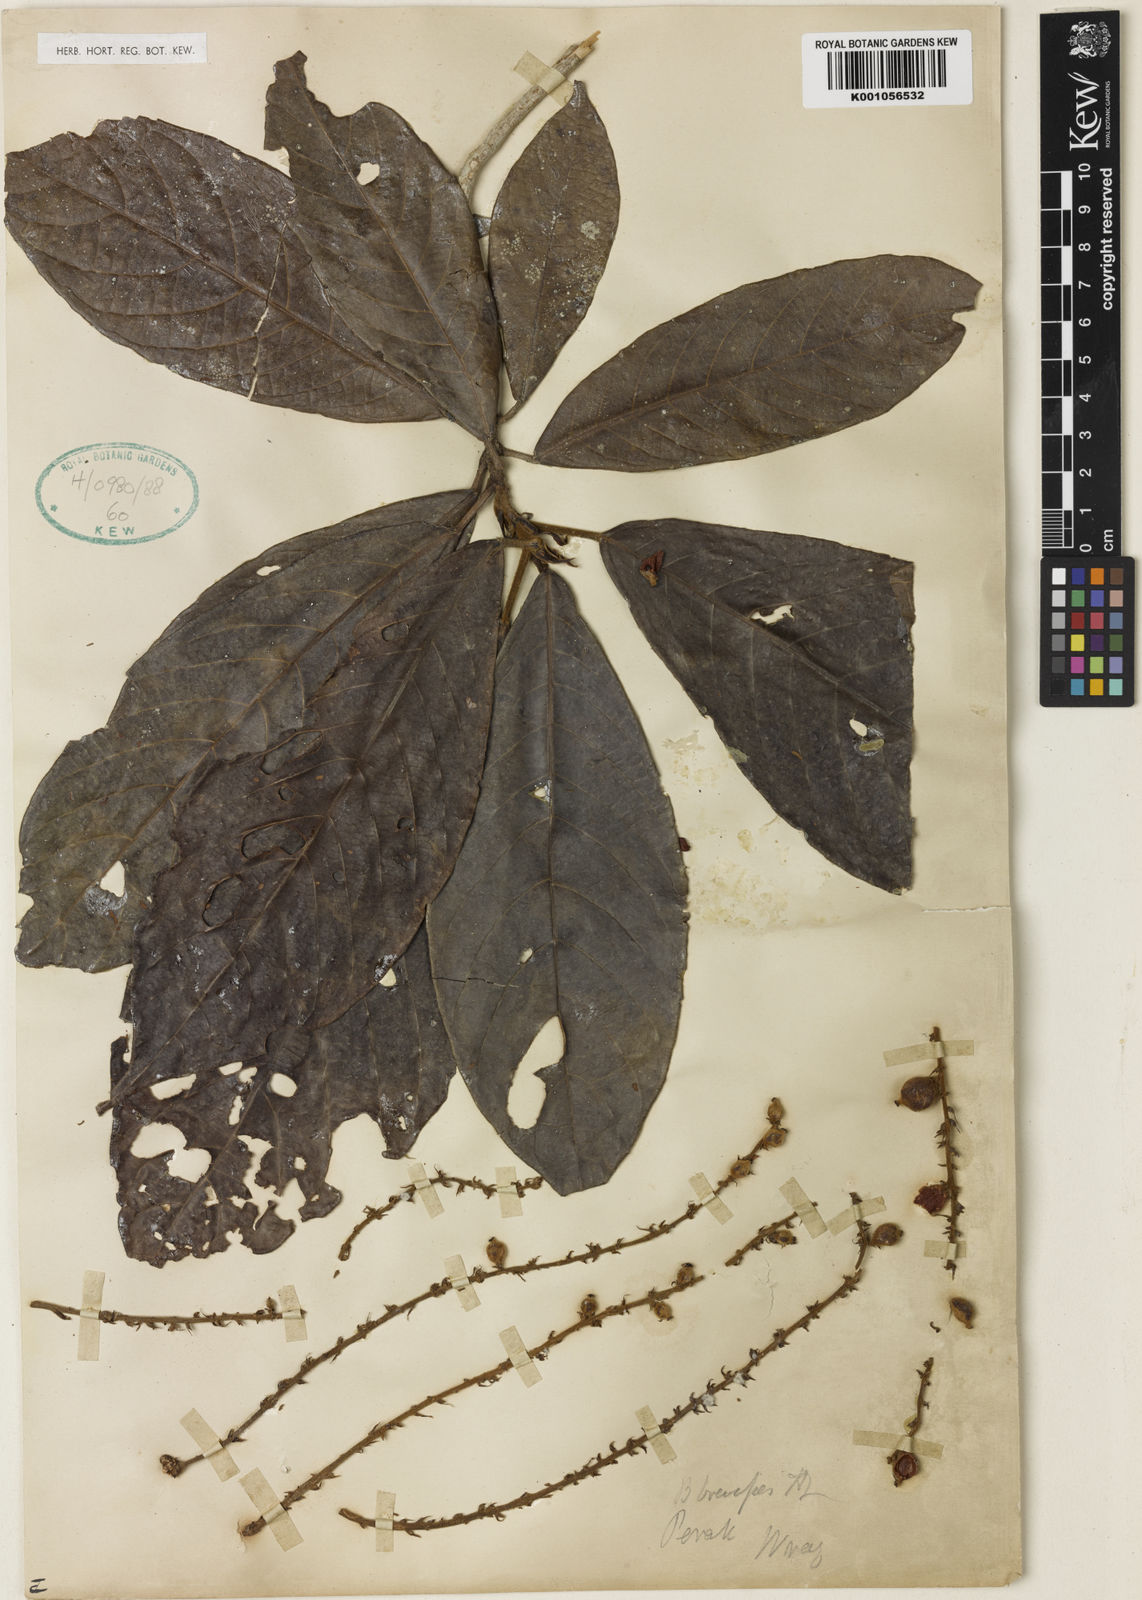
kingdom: Plantae
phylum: Tracheophyta
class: Magnoliopsida
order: Malpighiales
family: Phyllanthaceae
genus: Baccaurea
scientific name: Baccaurea brevipes
